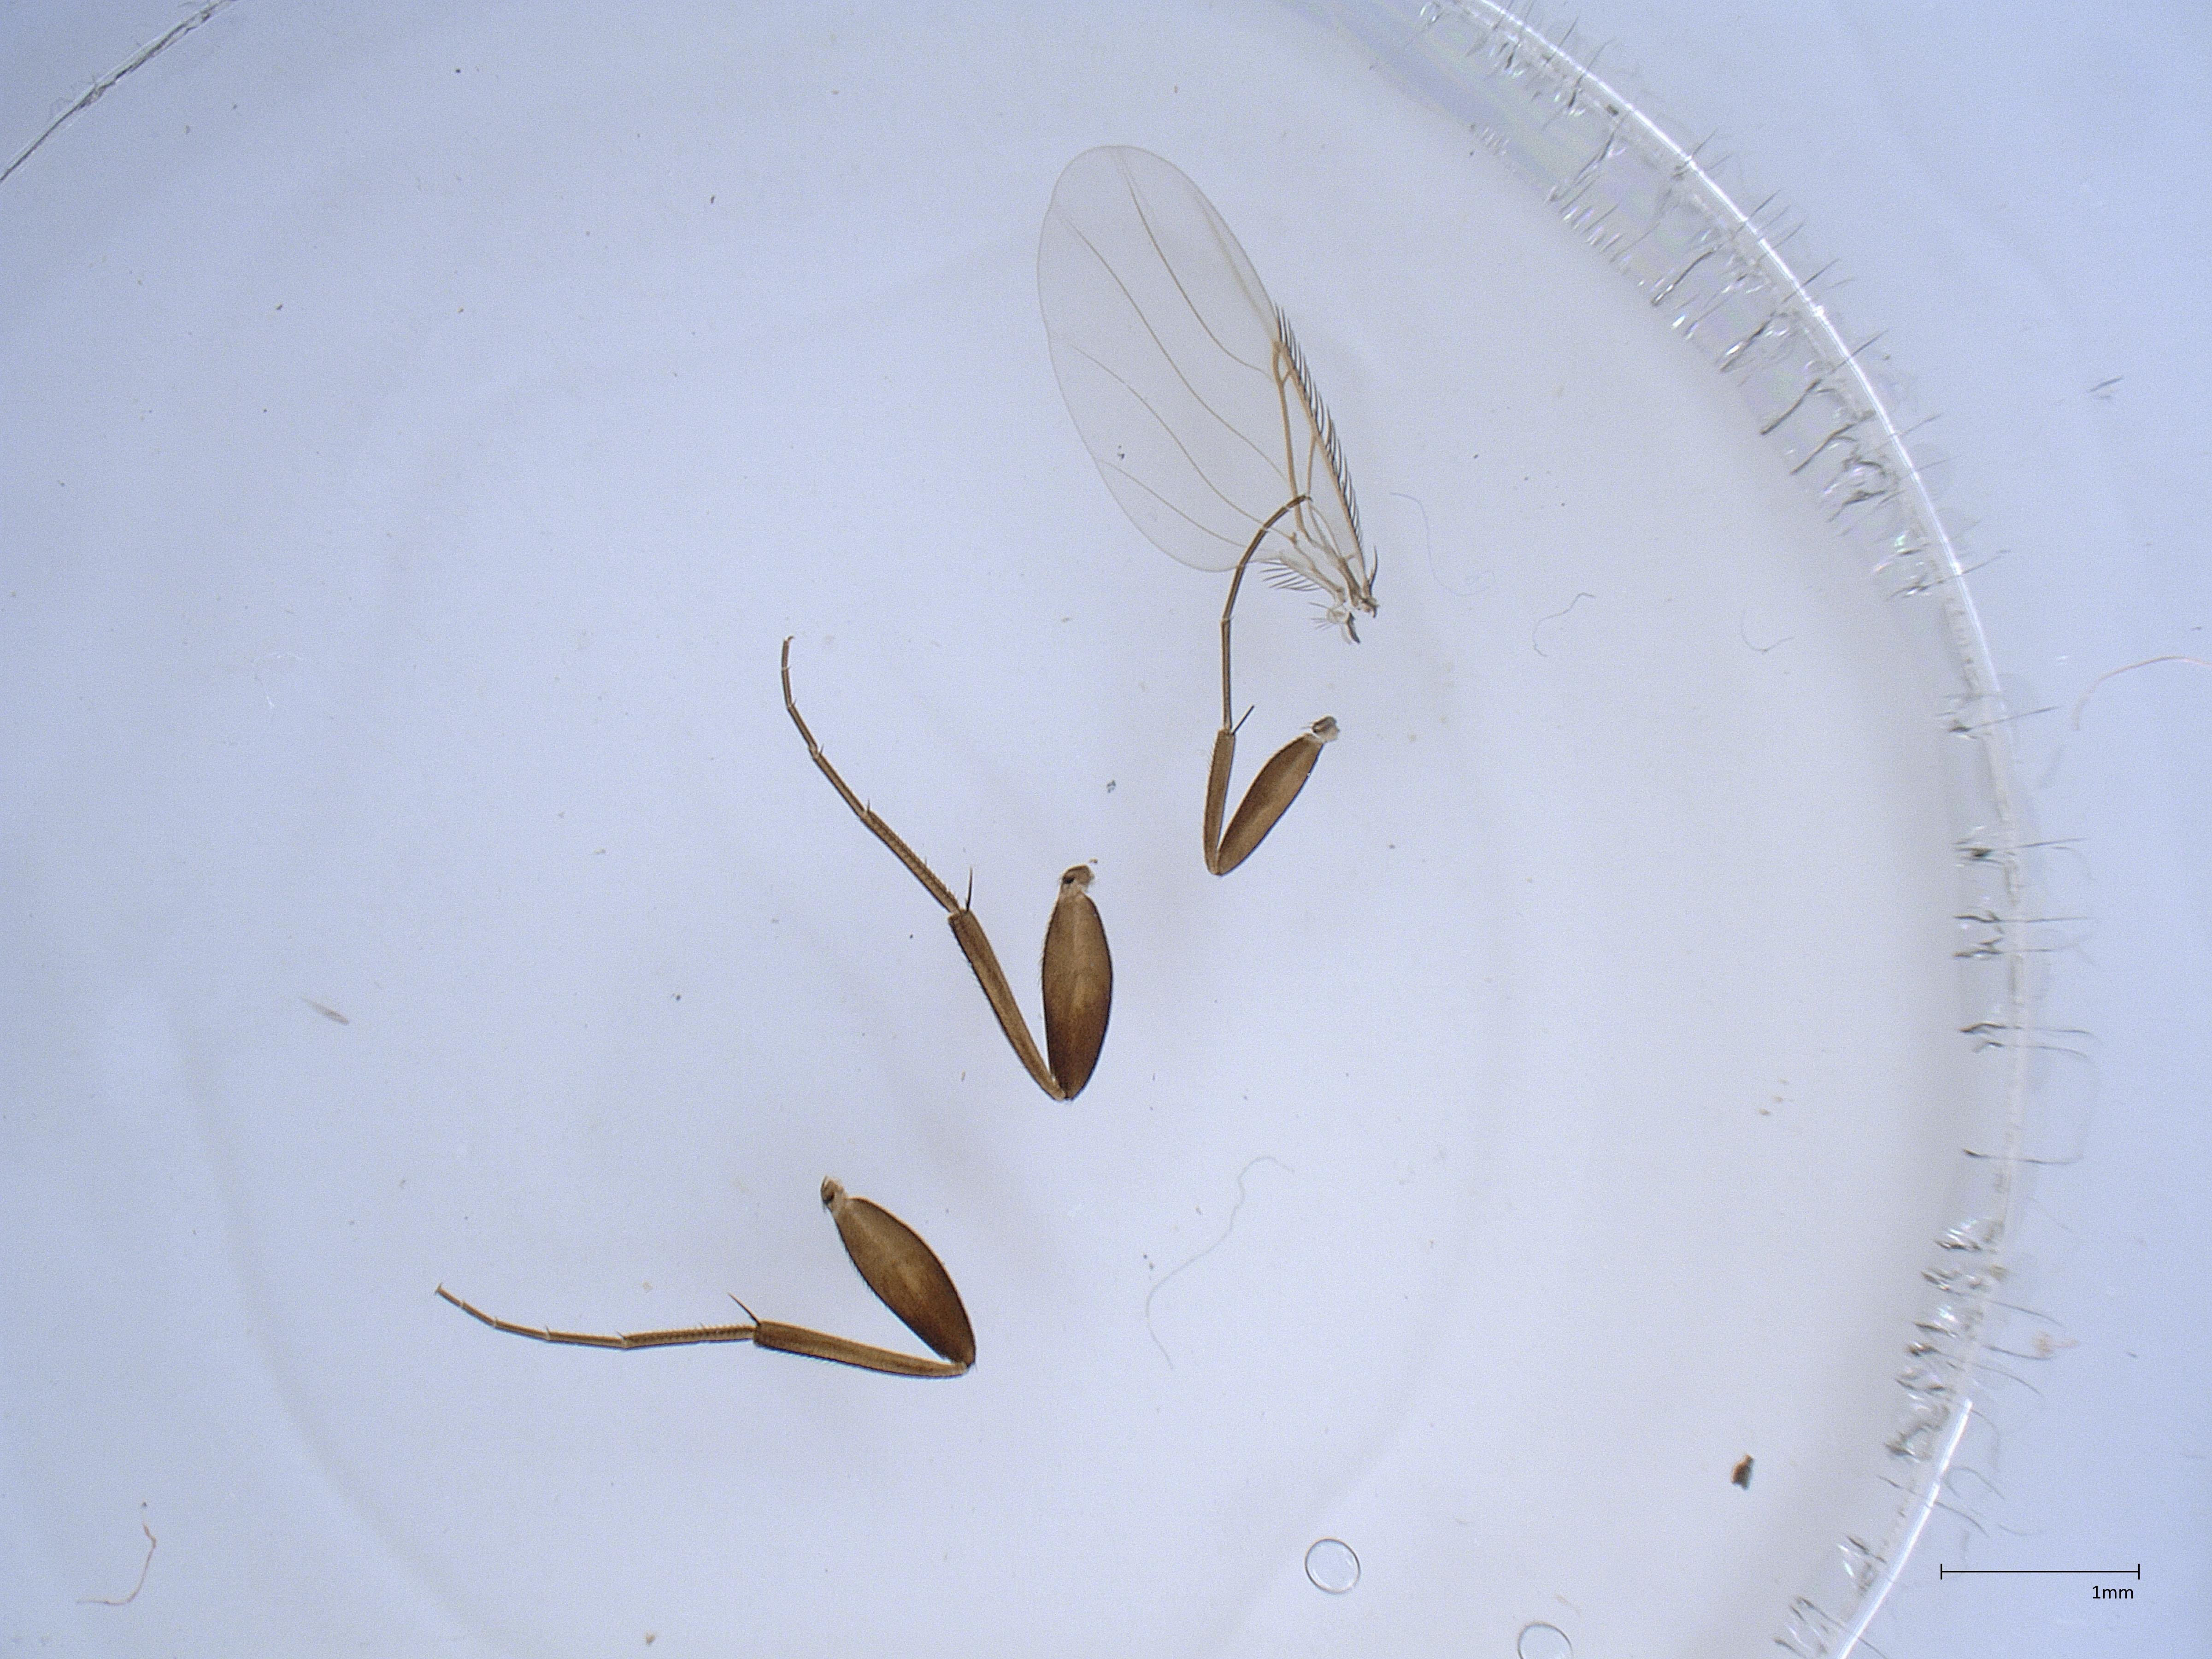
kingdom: Animalia
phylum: Arthropoda
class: Insecta
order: Diptera
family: Phoridae
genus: Megaselia
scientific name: Megaselia tenebricola
